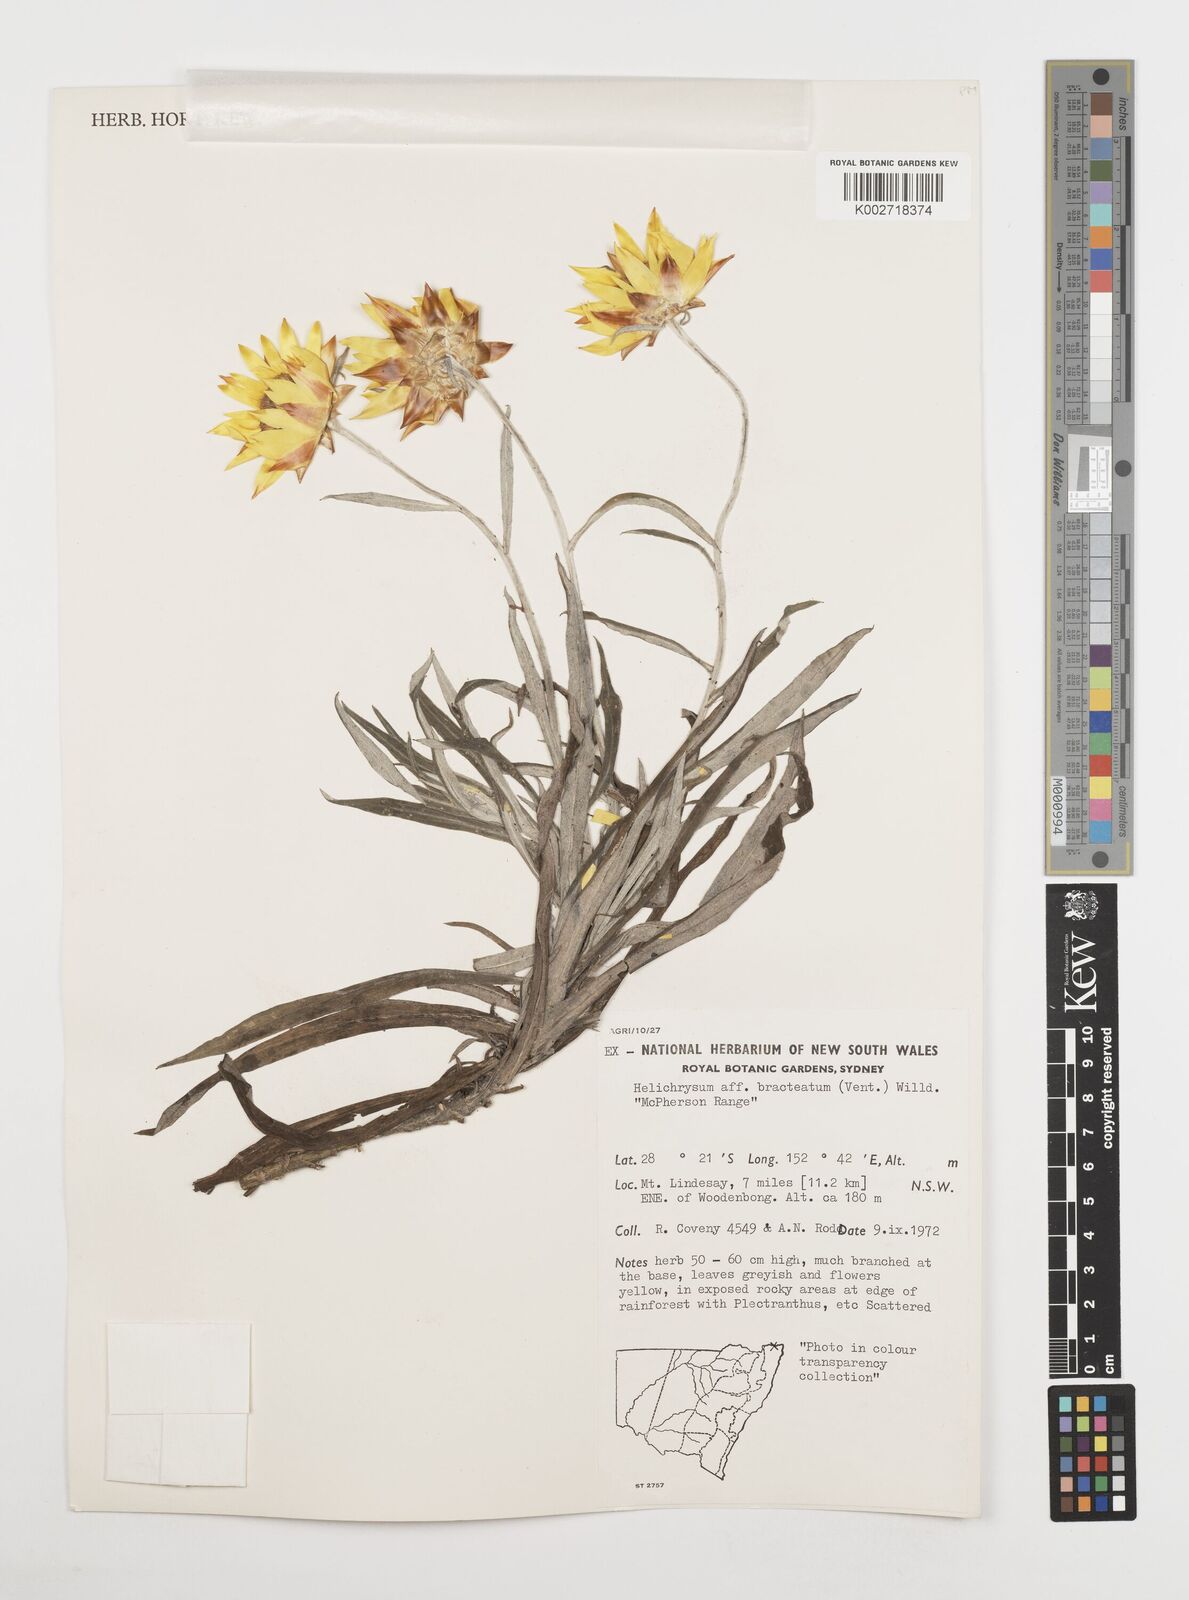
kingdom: Plantae
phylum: Tracheophyta
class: Magnoliopsida
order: Asterales
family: Asteraceae
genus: Xerochrysum
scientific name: Xerochrysum bracteatum
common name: Bracted strawflower
